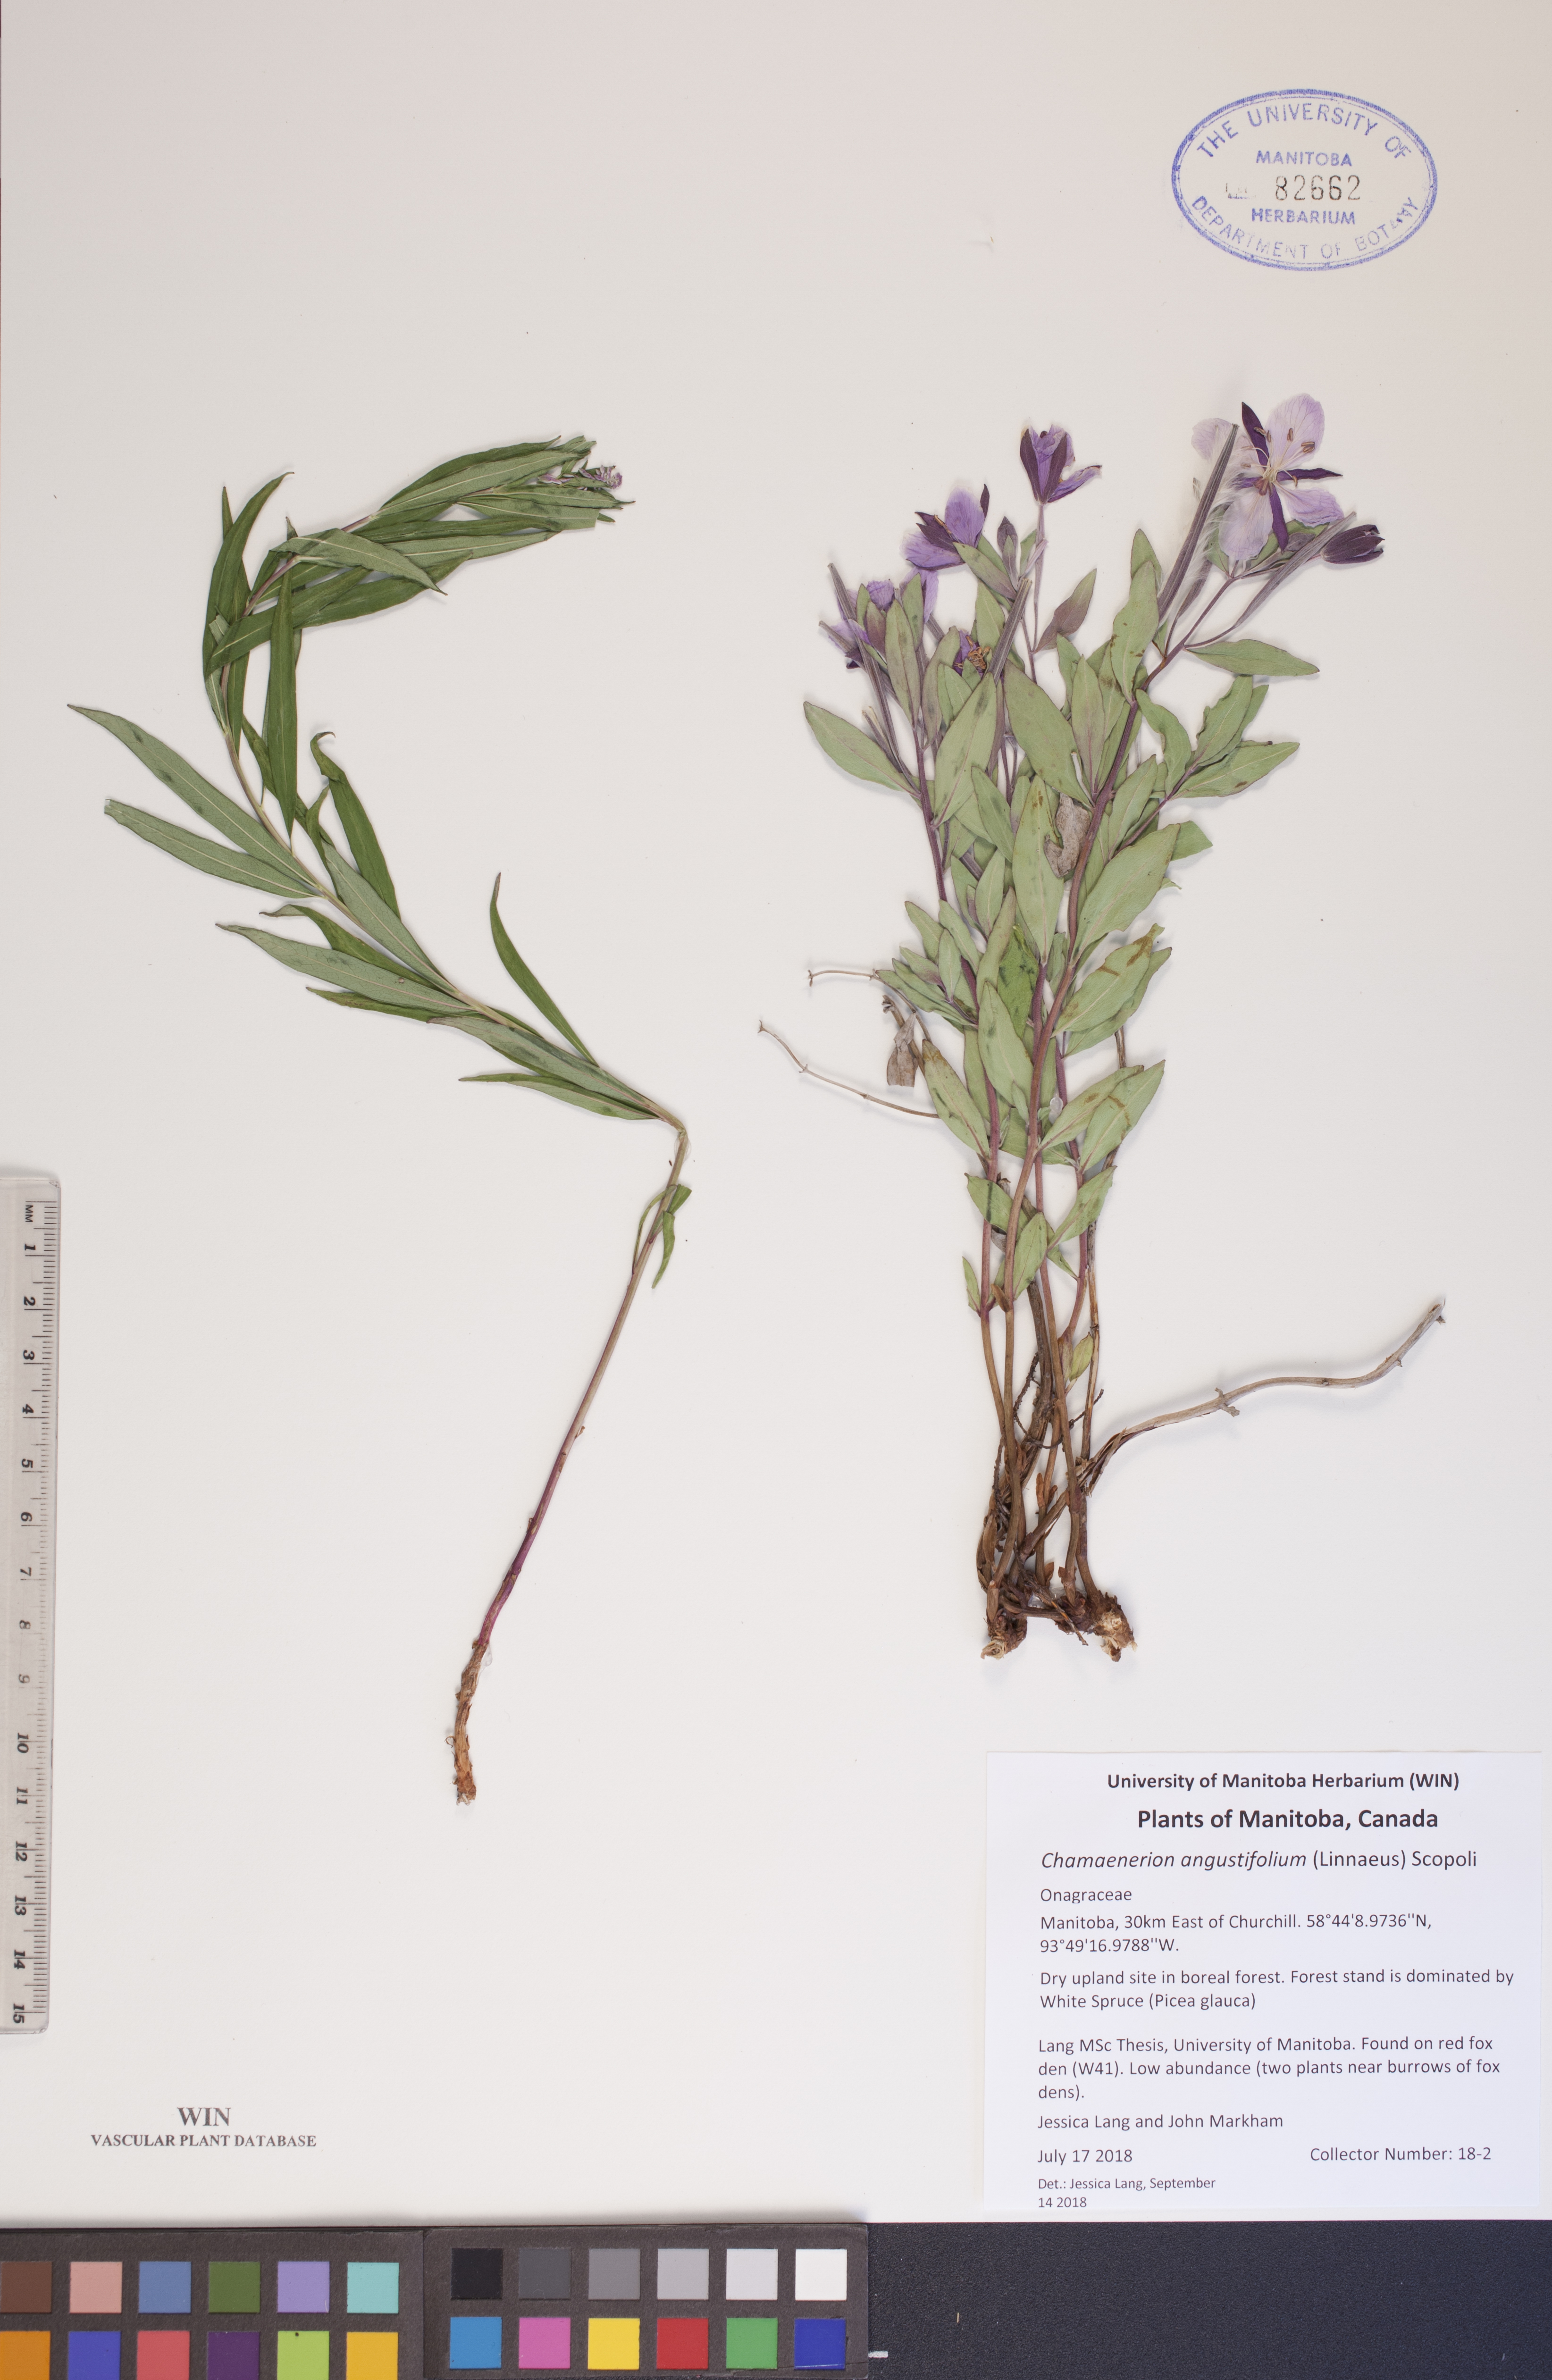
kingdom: Plantae
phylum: Tracheophyta
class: Magnoliopsida
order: Myrtales
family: Onagraceae
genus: Chamaenerion
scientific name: Chamaenerion angustifolium
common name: Fireweed
